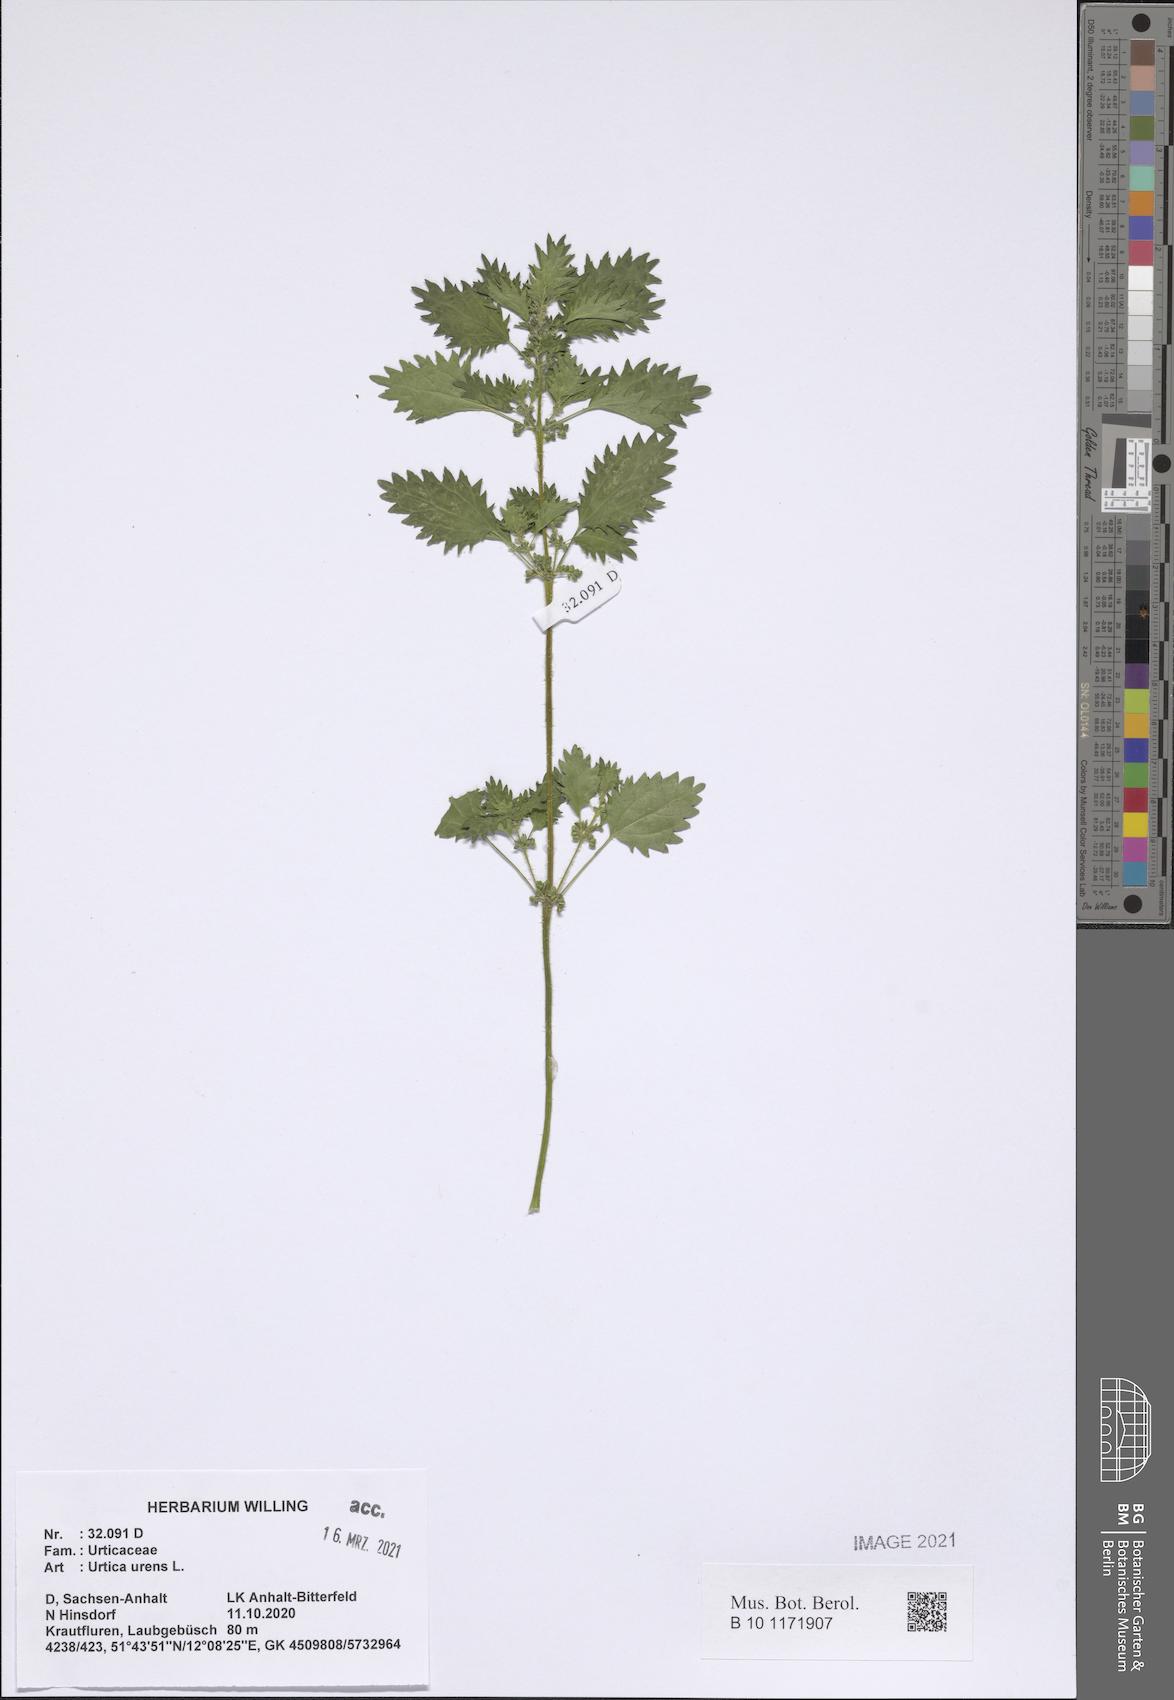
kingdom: Plantae
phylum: Tracheophyta
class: Magnoliopsida
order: Rosales
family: Urticaceae
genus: Urtica
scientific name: Urtica urens
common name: Dwarf nettle
